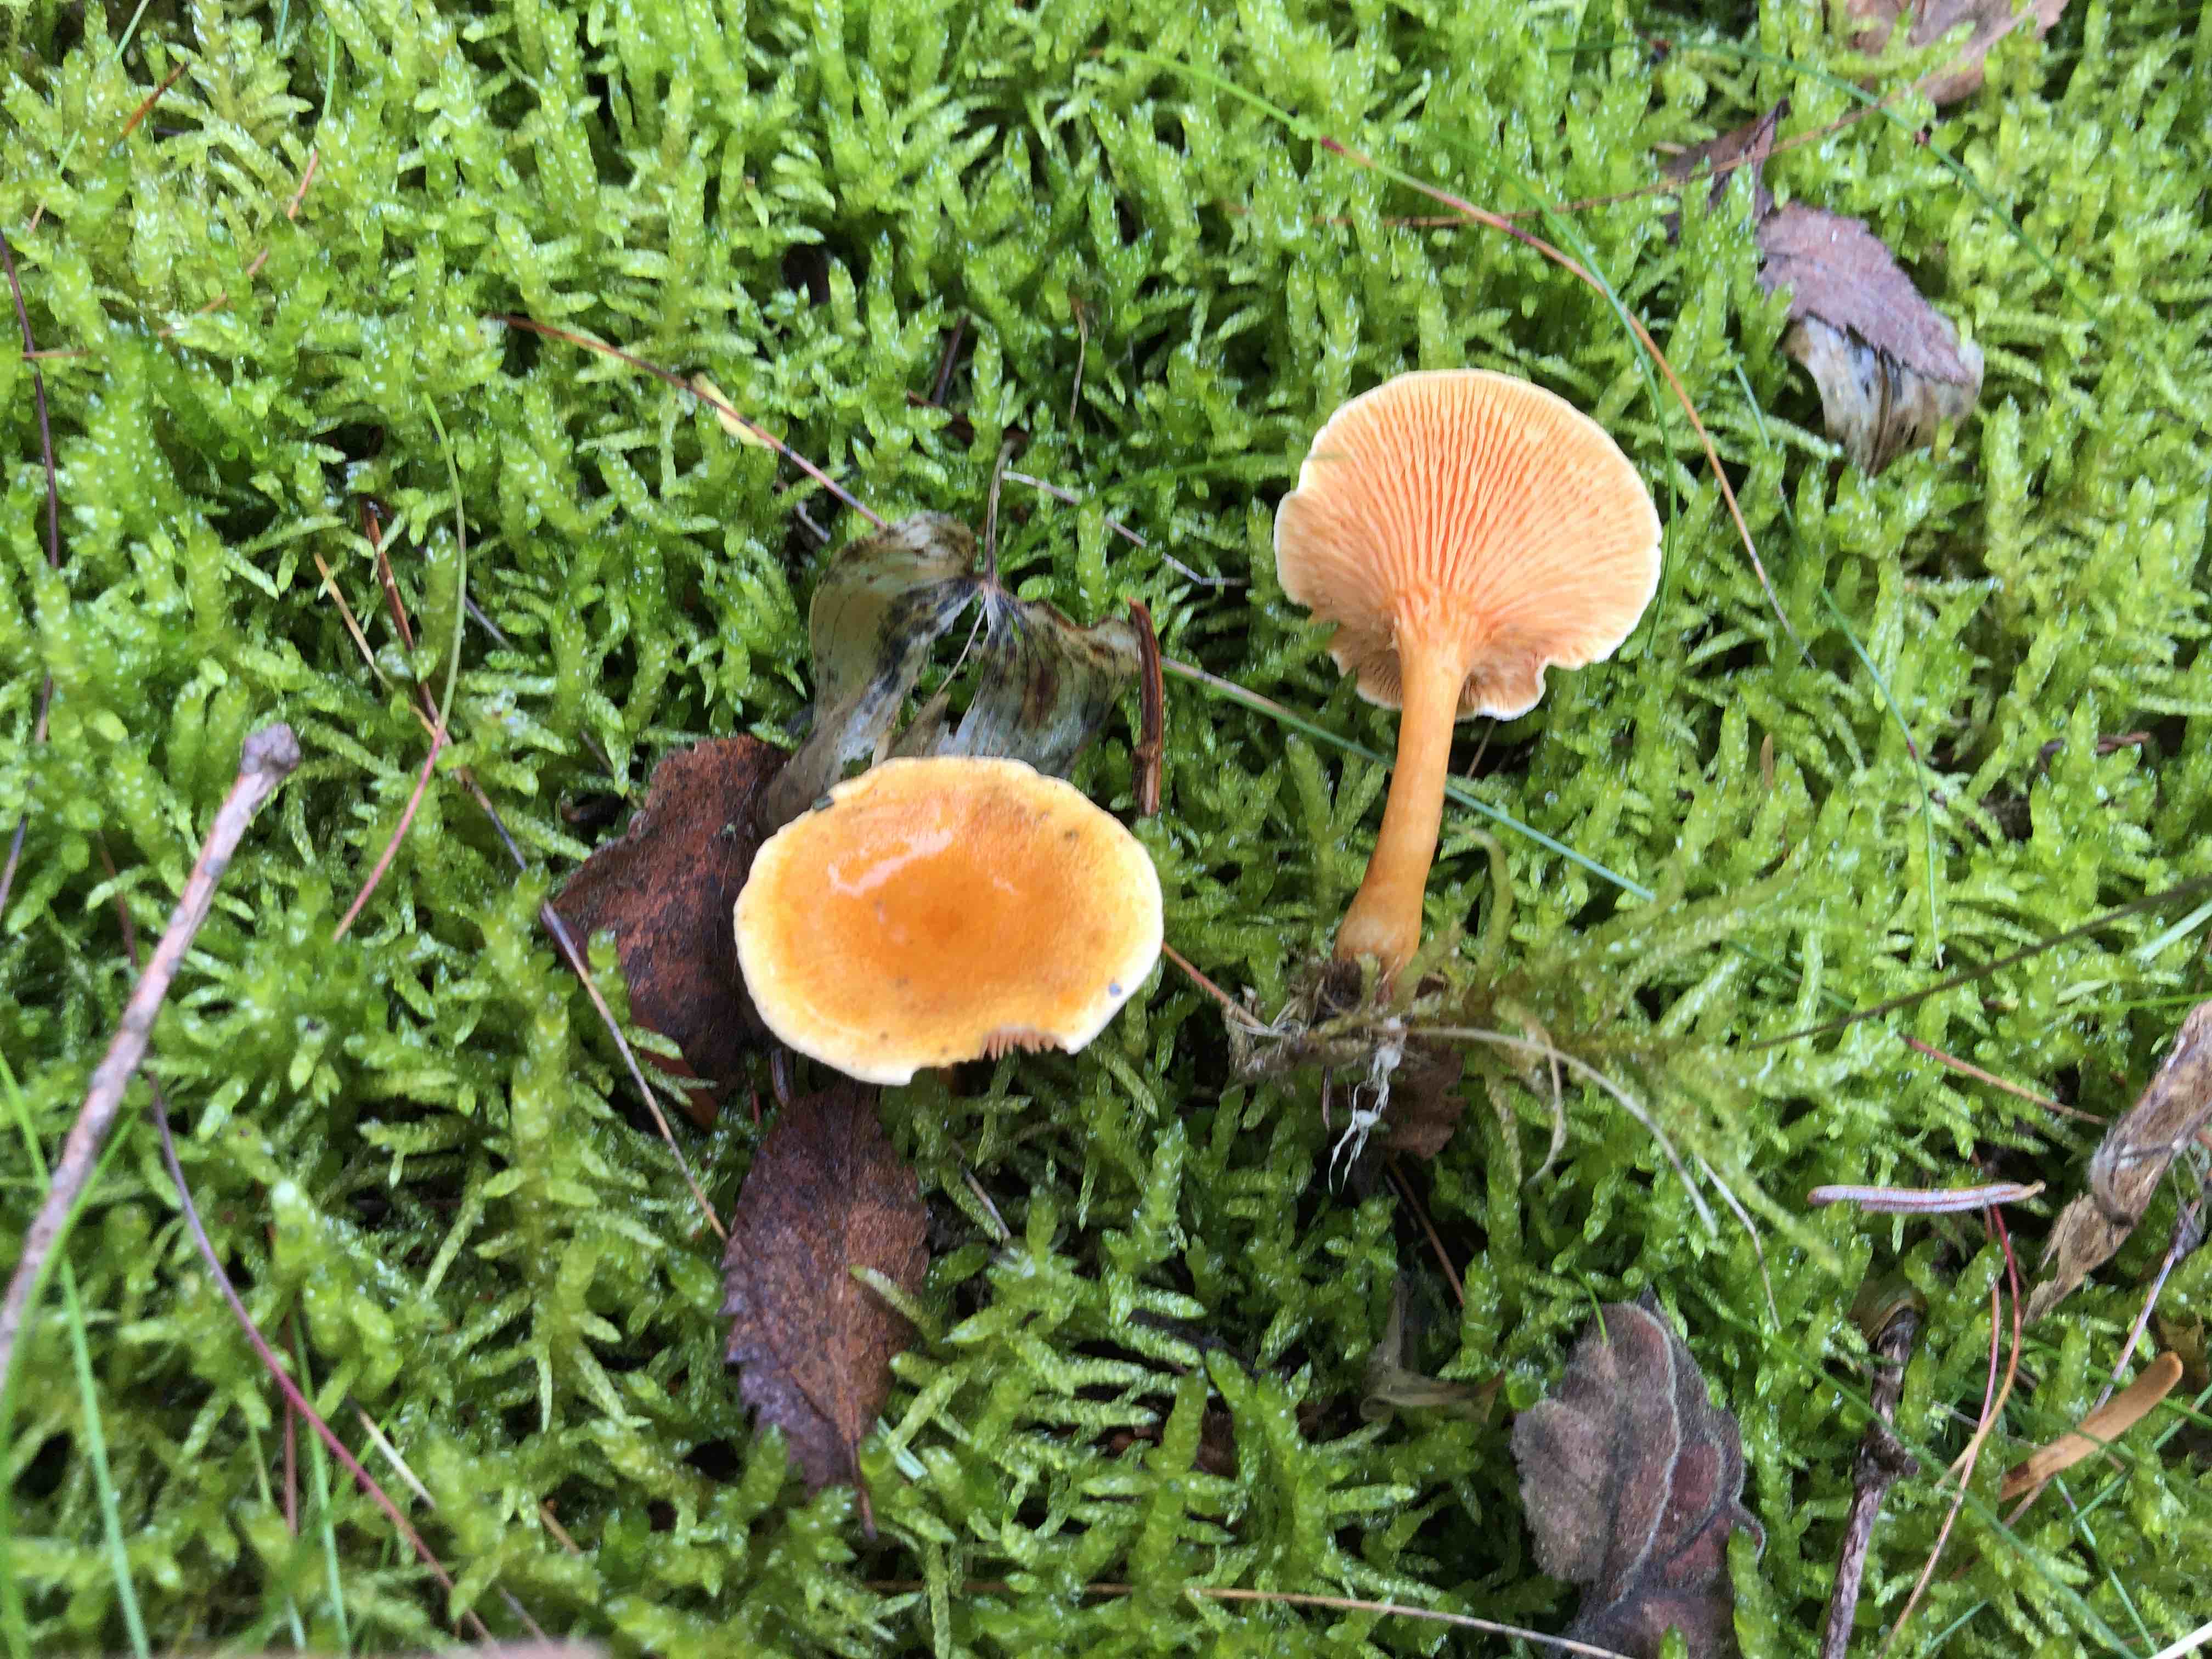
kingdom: Fungi
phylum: Basidiomycota
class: Agaricomycetes
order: Boletales
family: Hygrophoropsidaceae
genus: Hygrophoropsis
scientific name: Hygrophoropsis aurantiaca
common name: almindelig orangekantarel
